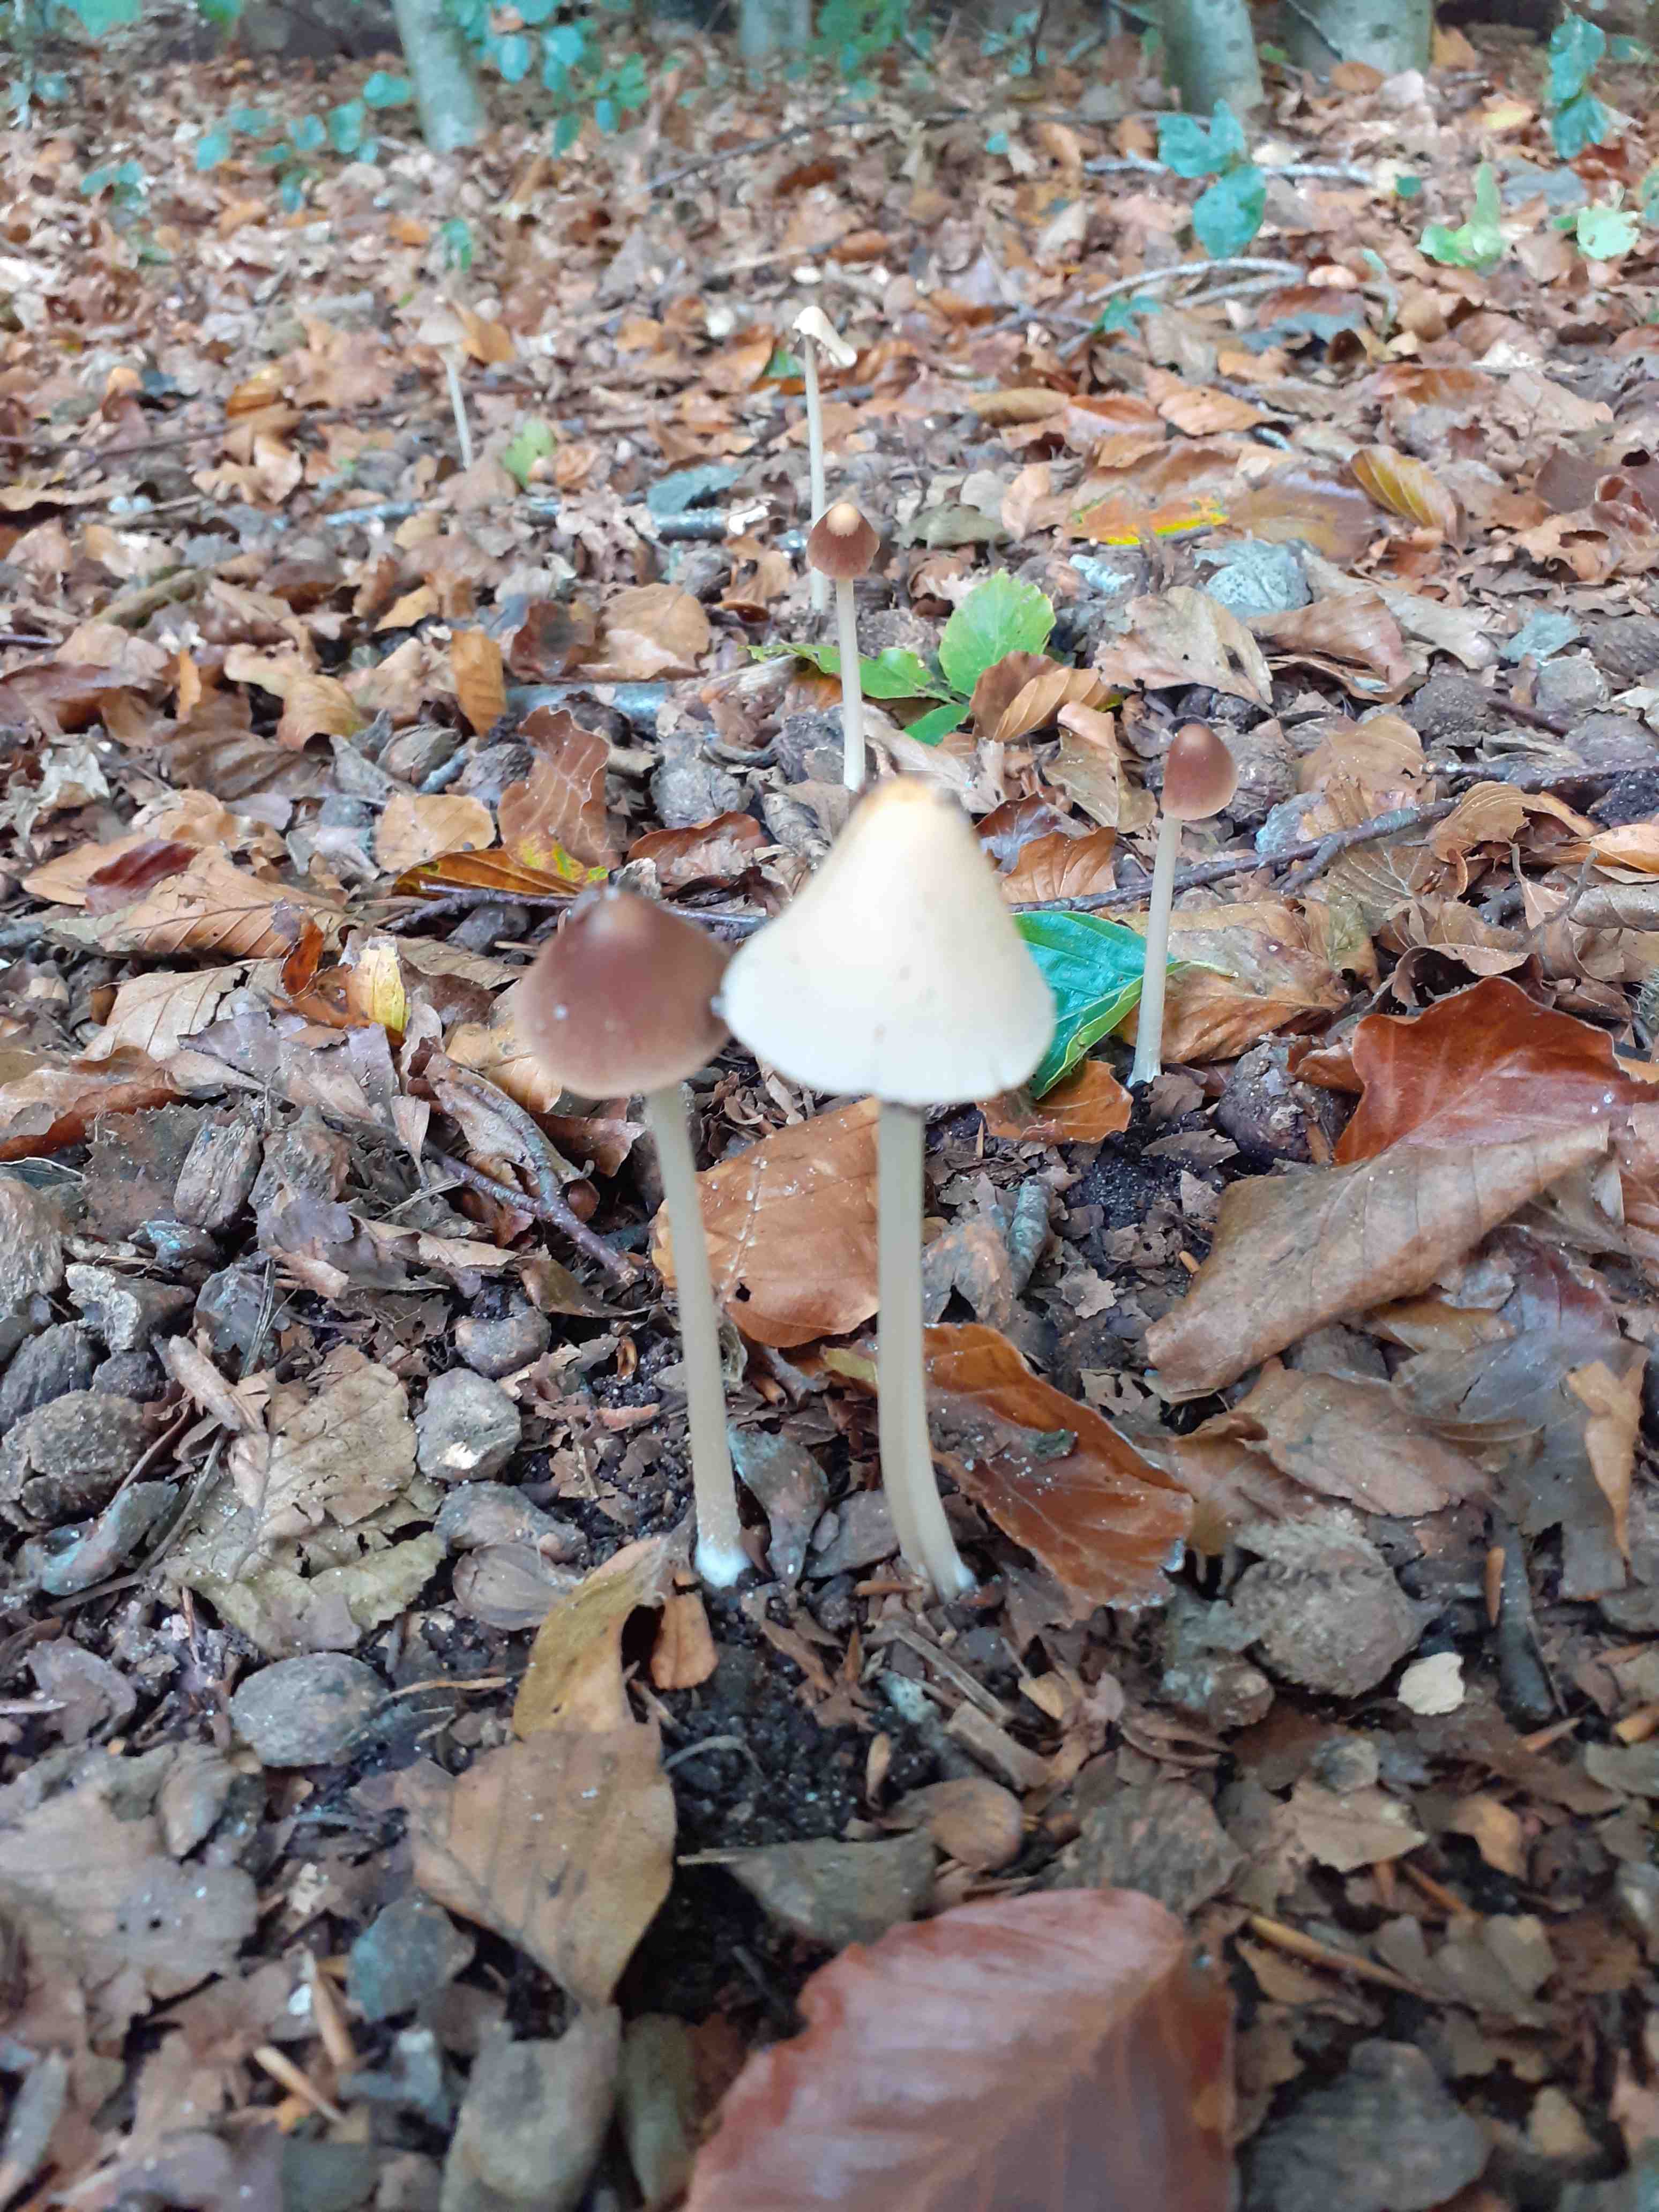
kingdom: Fungi
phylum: Basidiomycota
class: Agaricomycetes
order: Agaricales
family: Psathyrellaceae
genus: Parasola
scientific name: Parasola conopilea
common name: kegle-hjulhat
